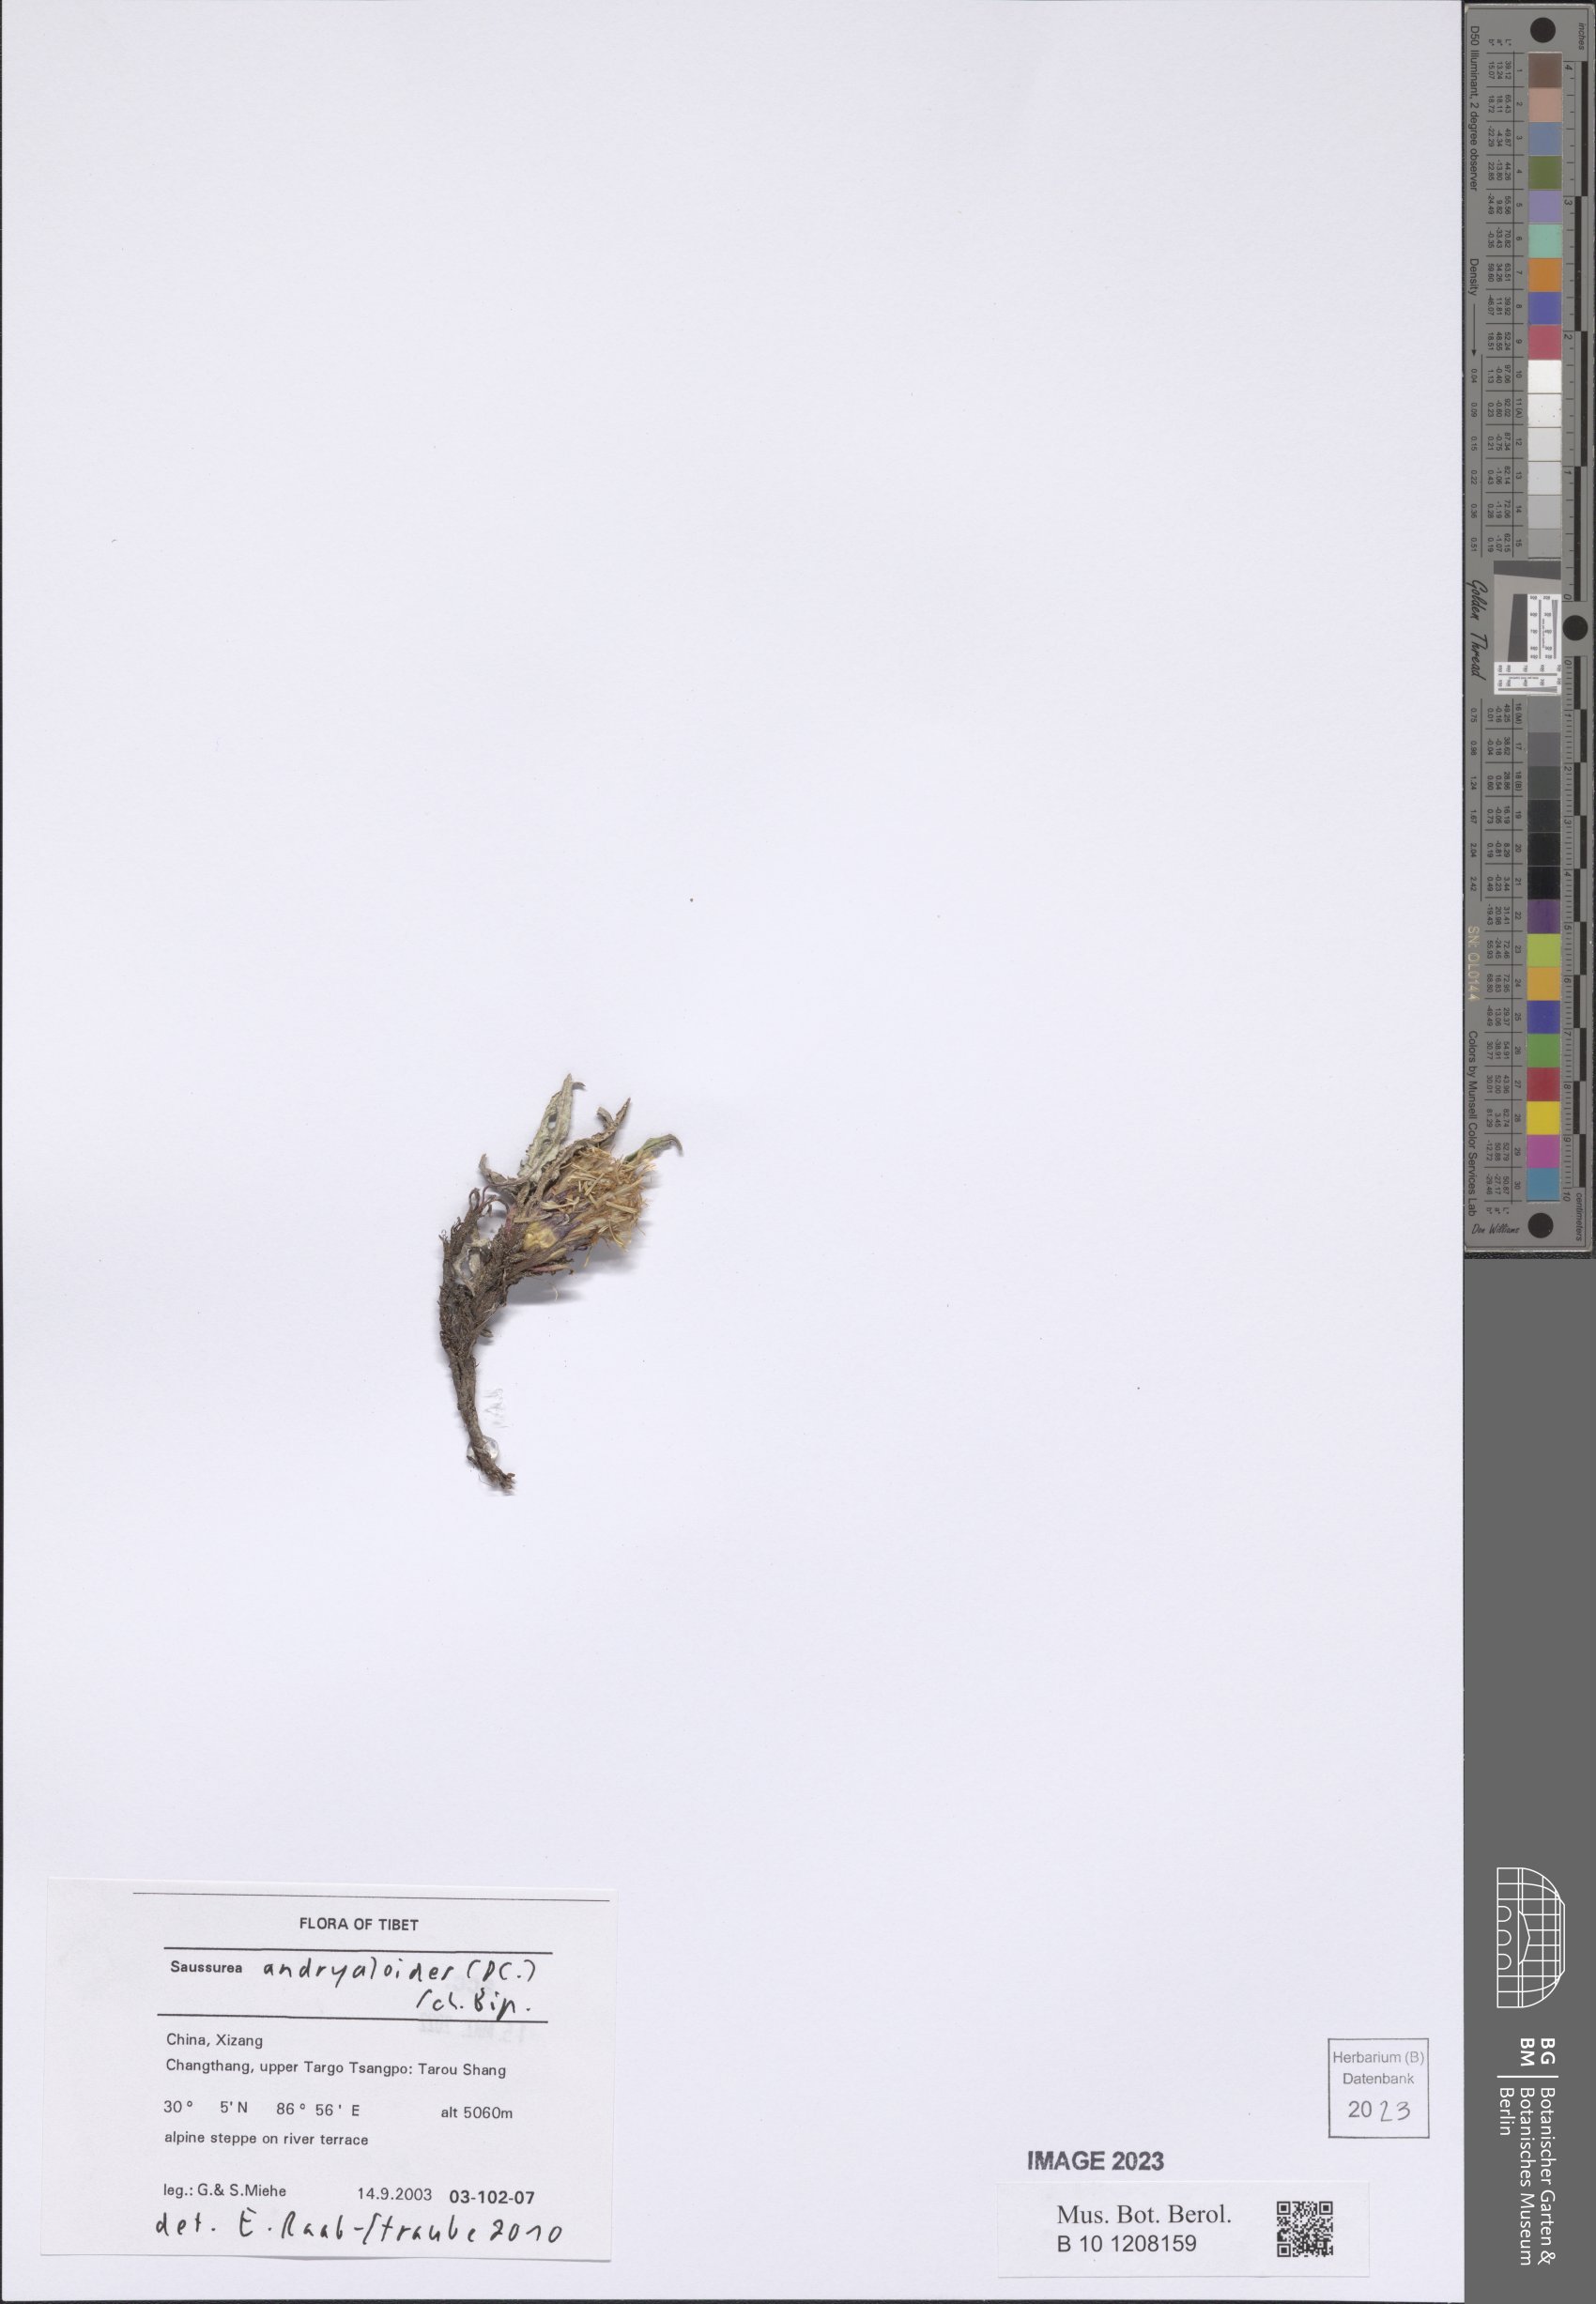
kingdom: Plantae
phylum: Tracheophyta
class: Magnoliopsida
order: Asterales
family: Asteraceae
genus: Saussurea
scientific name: Saussurea andryaloides
